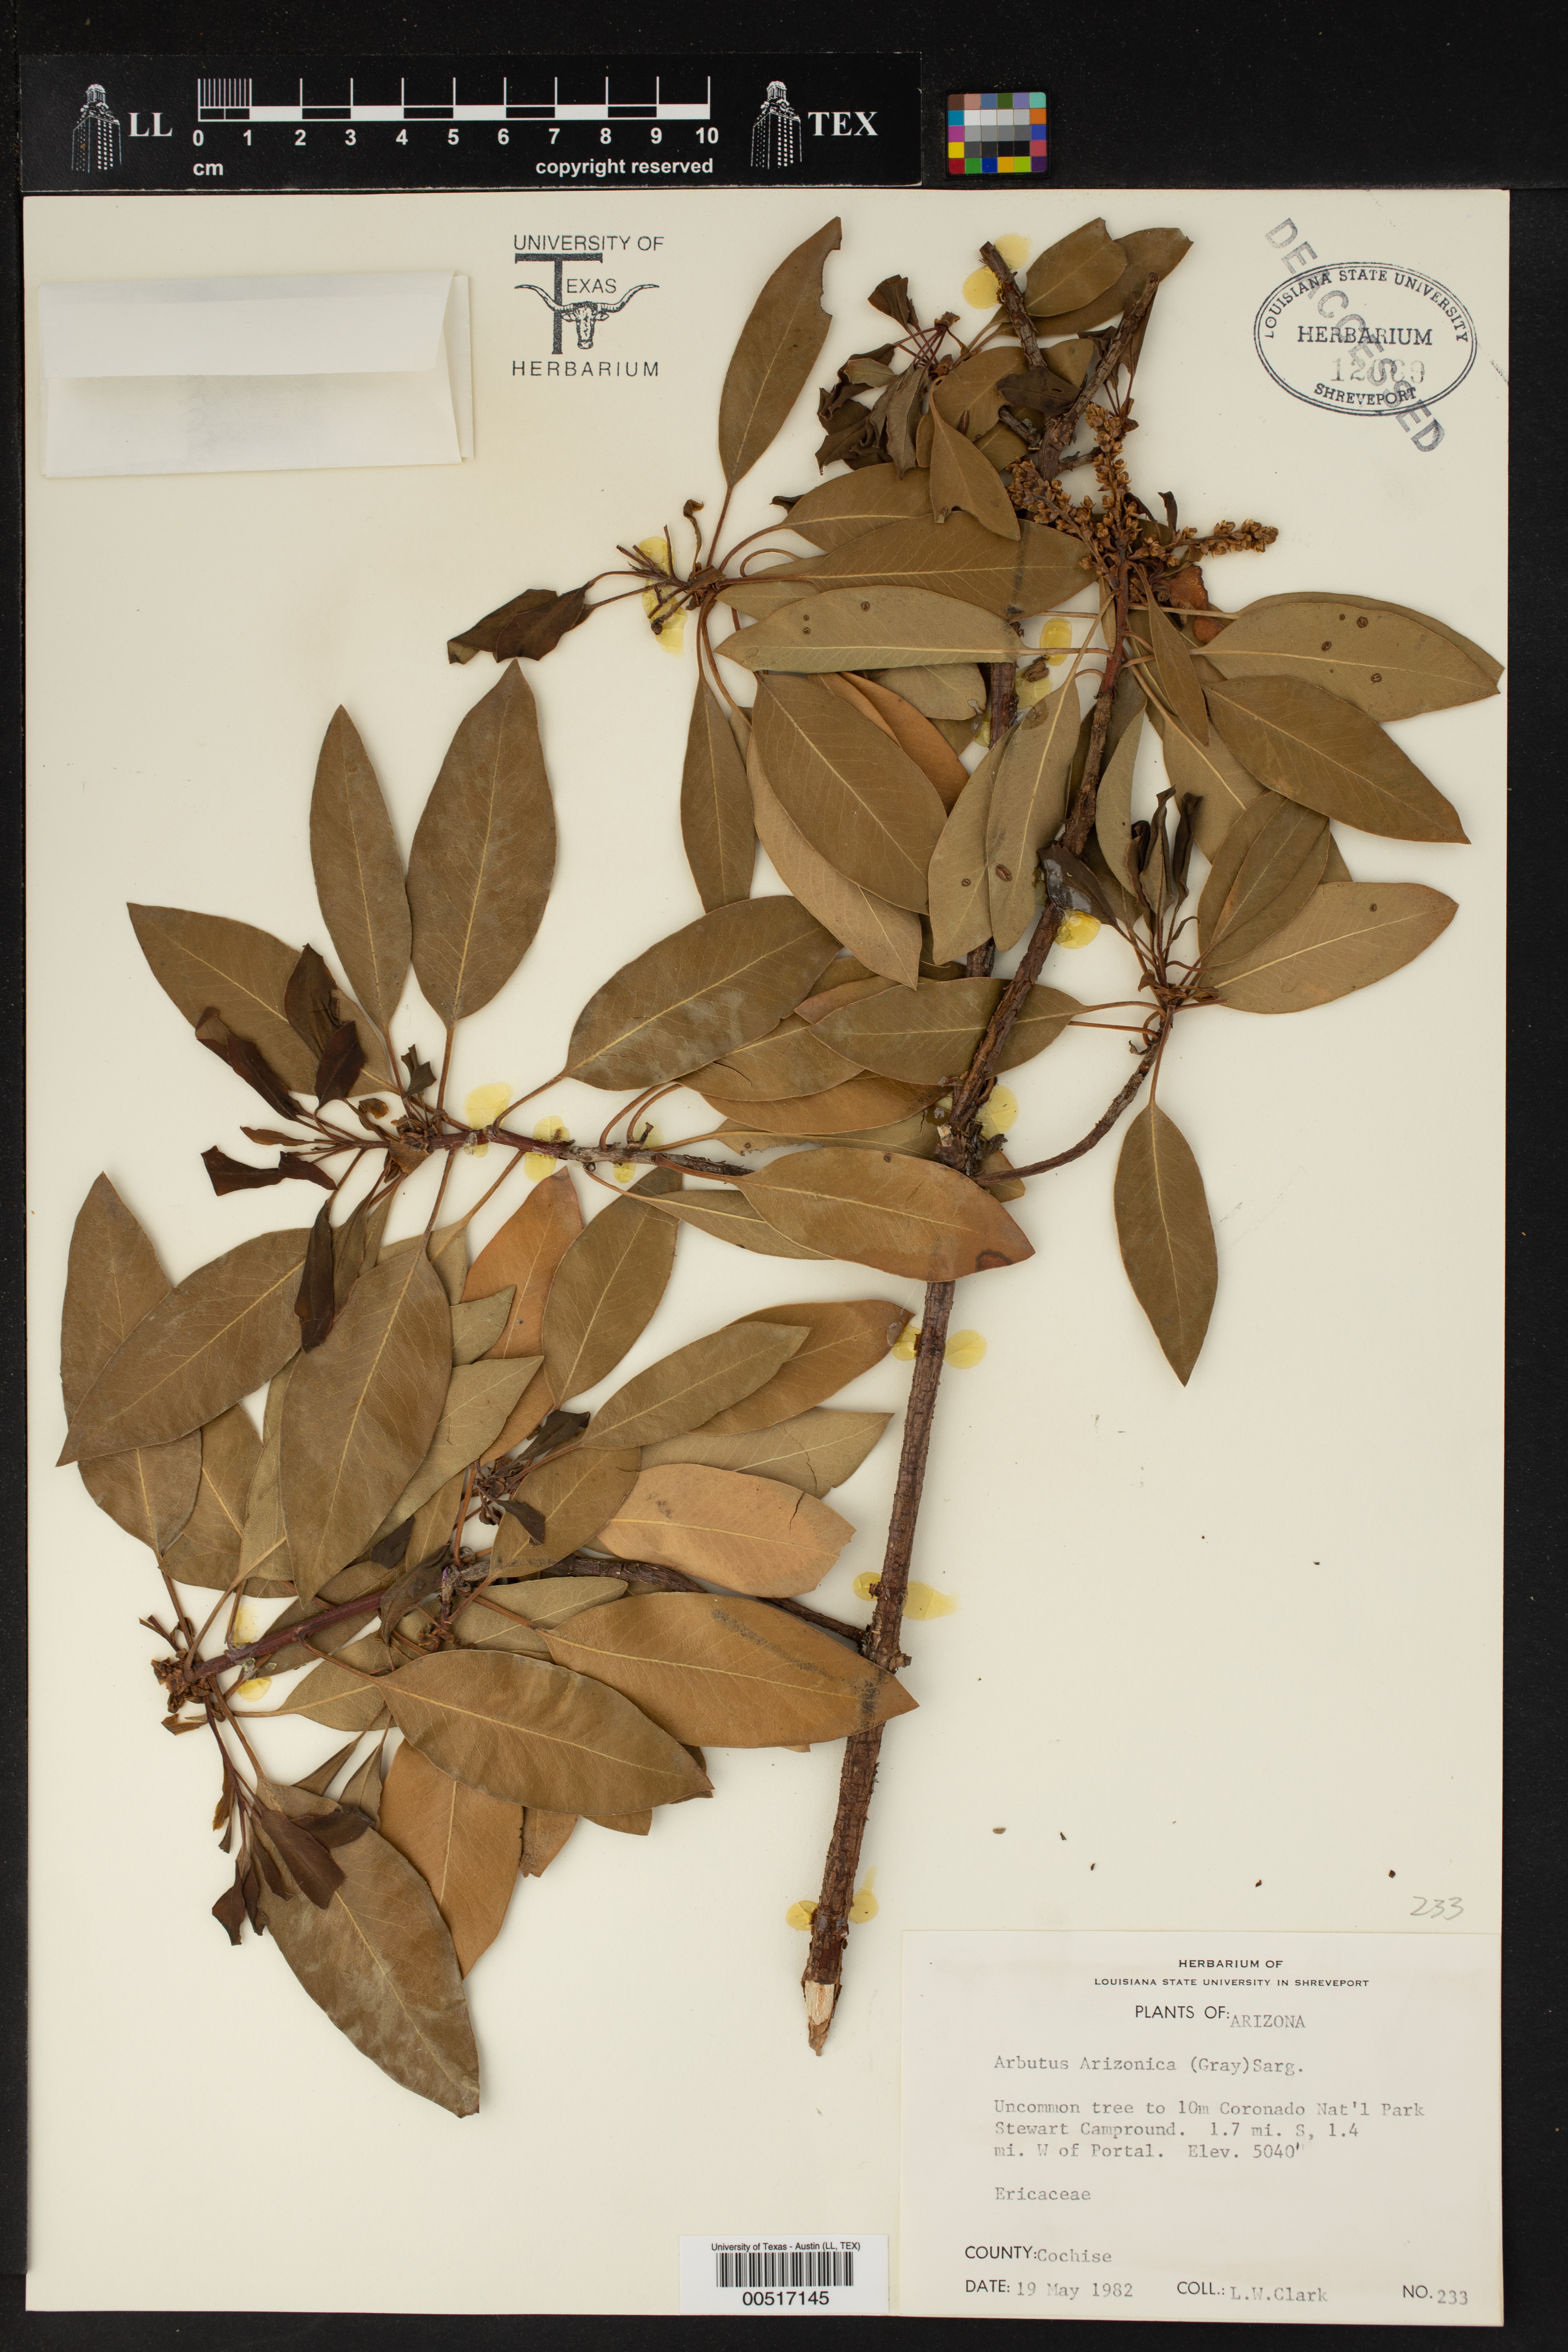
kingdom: Plantae
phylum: Tracheophyta
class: Magnoliopsida
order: Ericales
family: Ericaceae
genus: Arbutus
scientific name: Arbutus arizonica
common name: Arizona madrone
